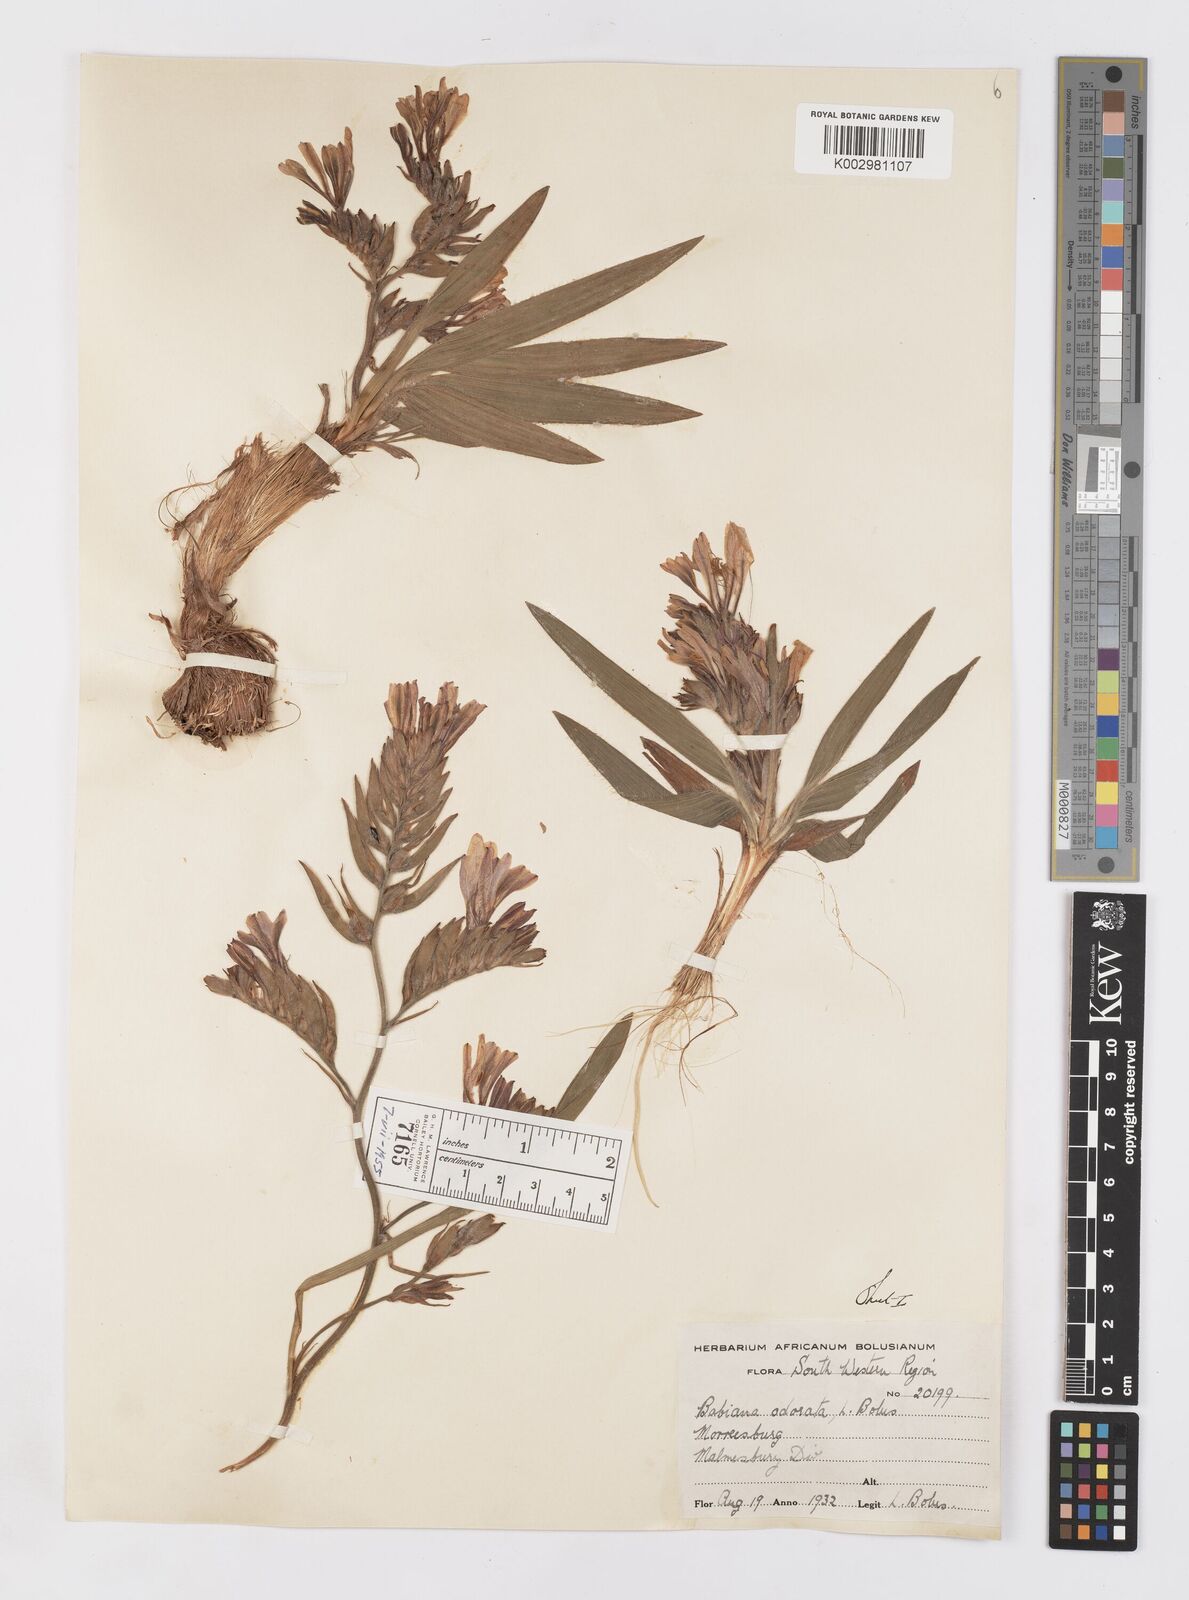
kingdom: Plantae
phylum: Tracheophyta
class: Liliopsida
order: Asparagales
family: Iridaceae
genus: Babiana
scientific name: Babiana odorata
